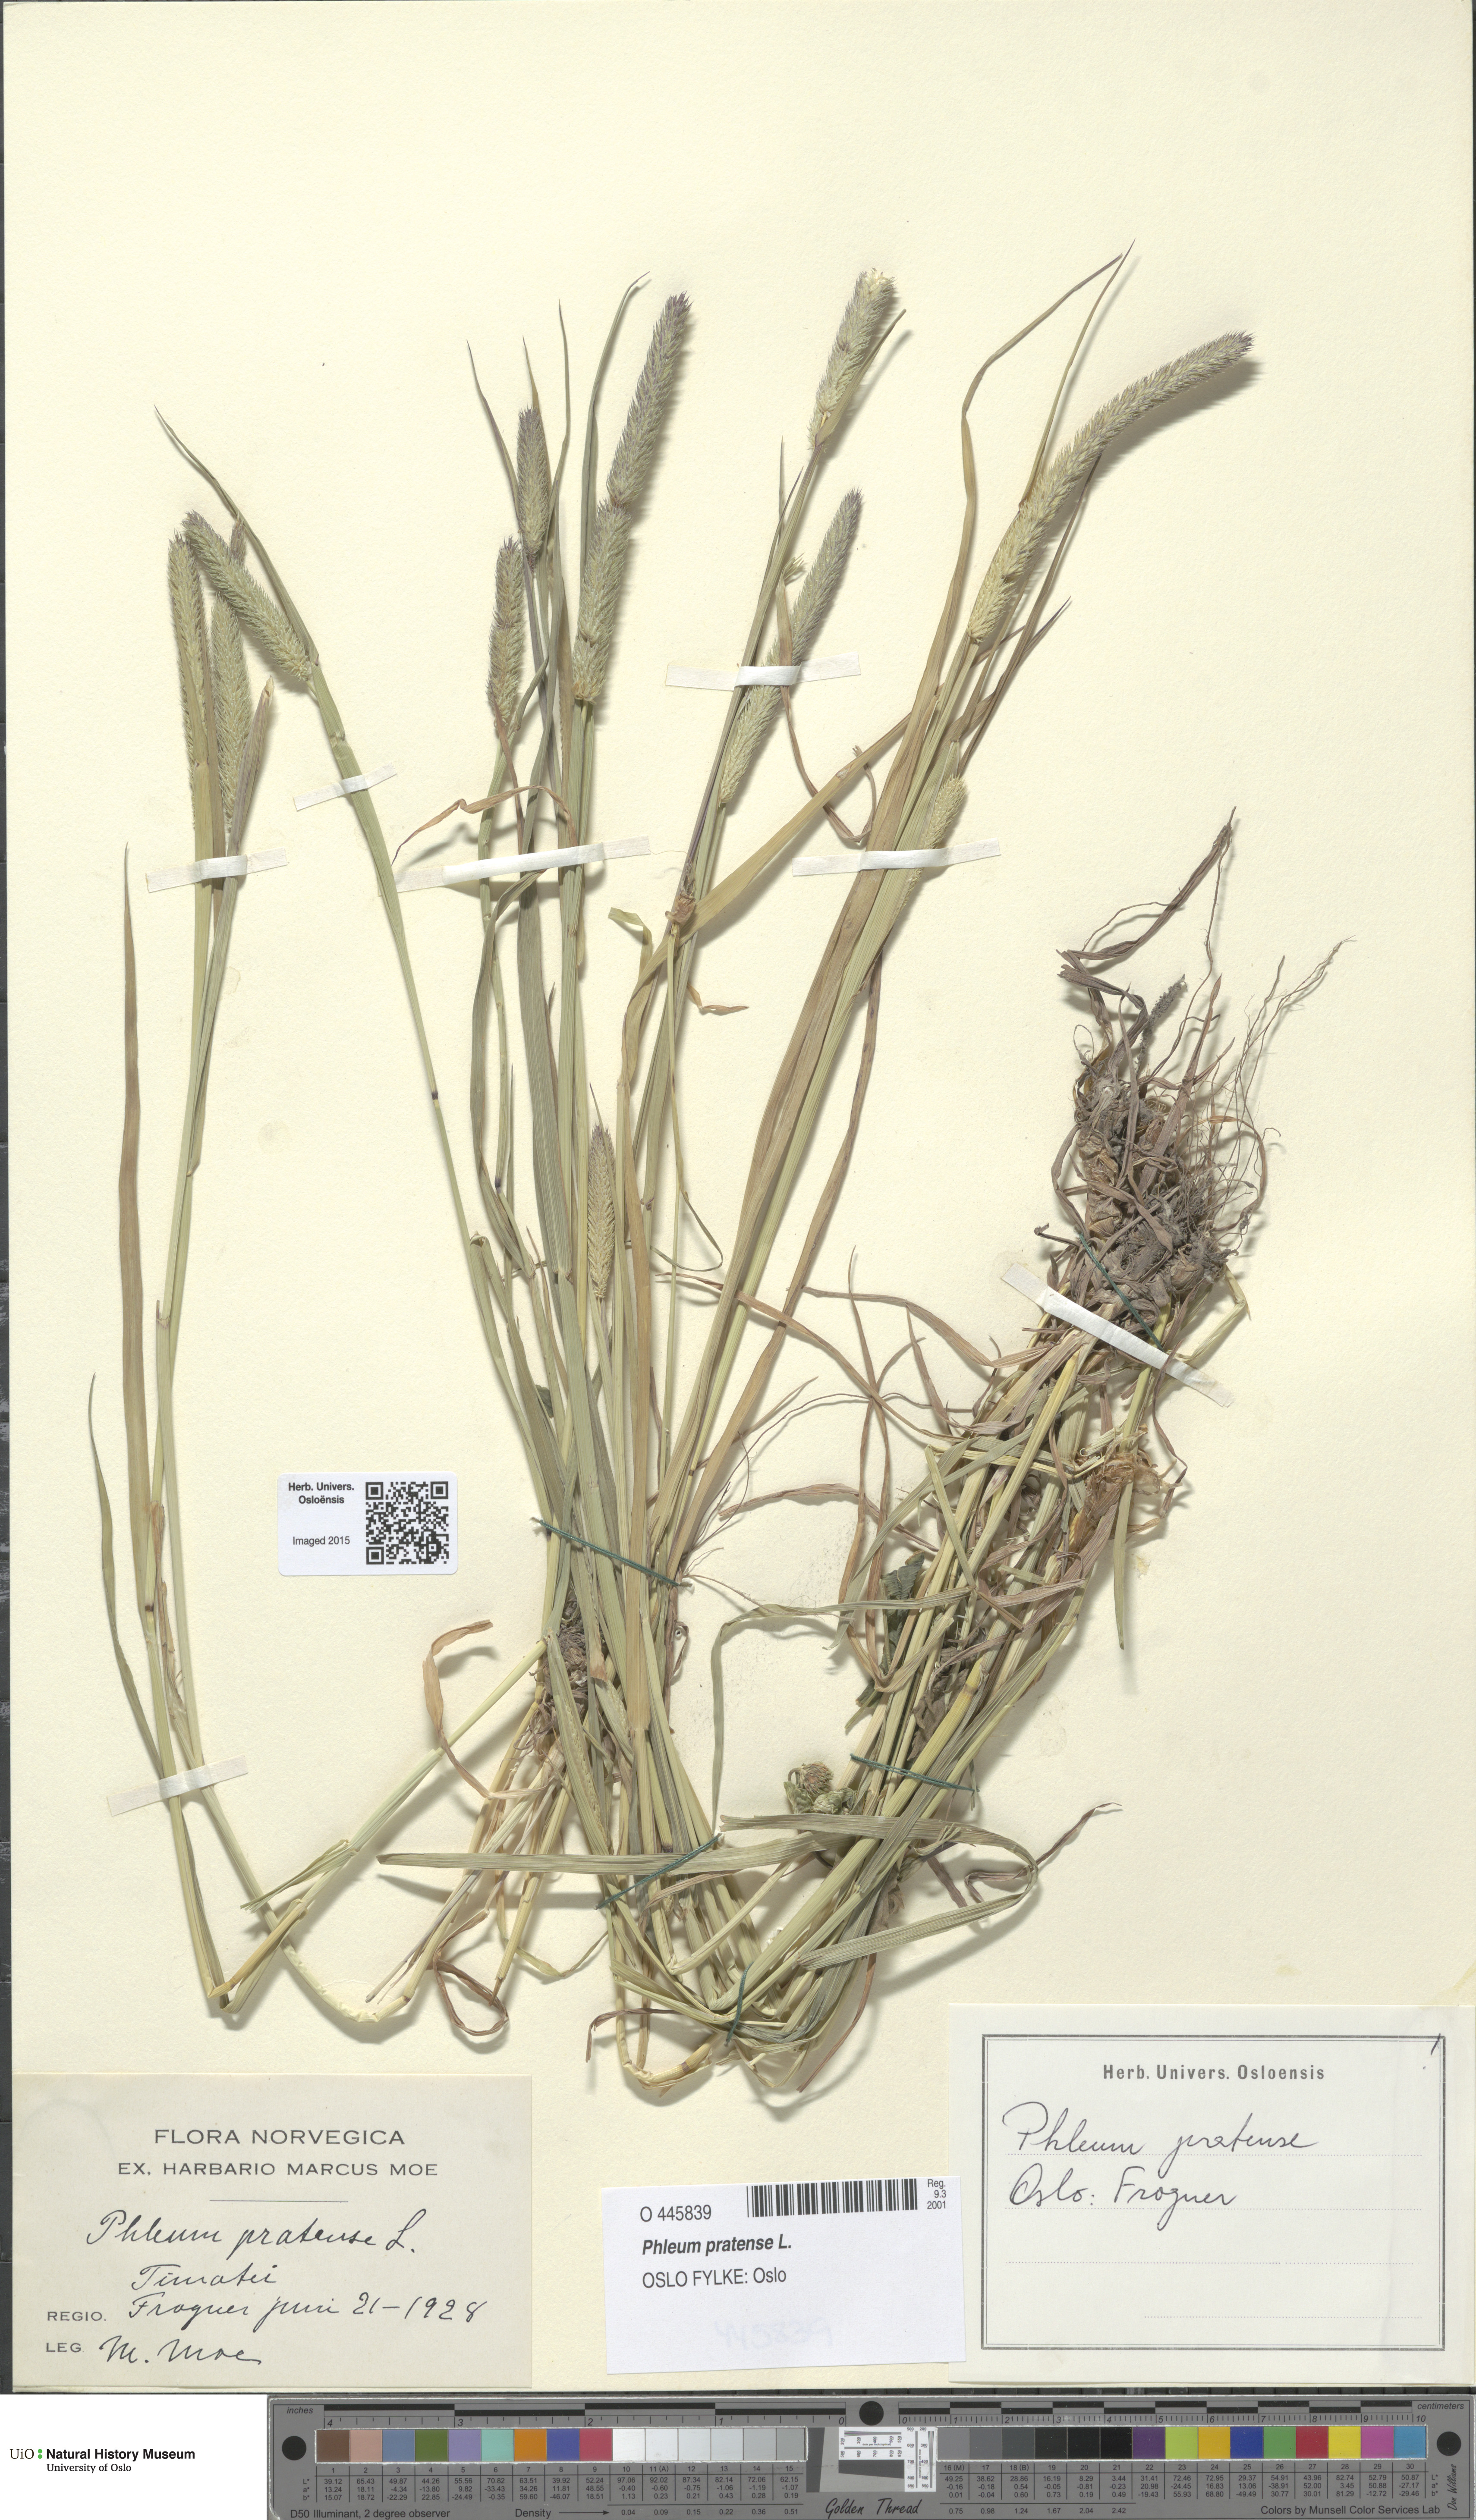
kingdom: Plantae
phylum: Tracheophyta
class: Liliopsida
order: Poales
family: Poaceae
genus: Phleum
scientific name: Phleum pratense
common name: Timothy grass
